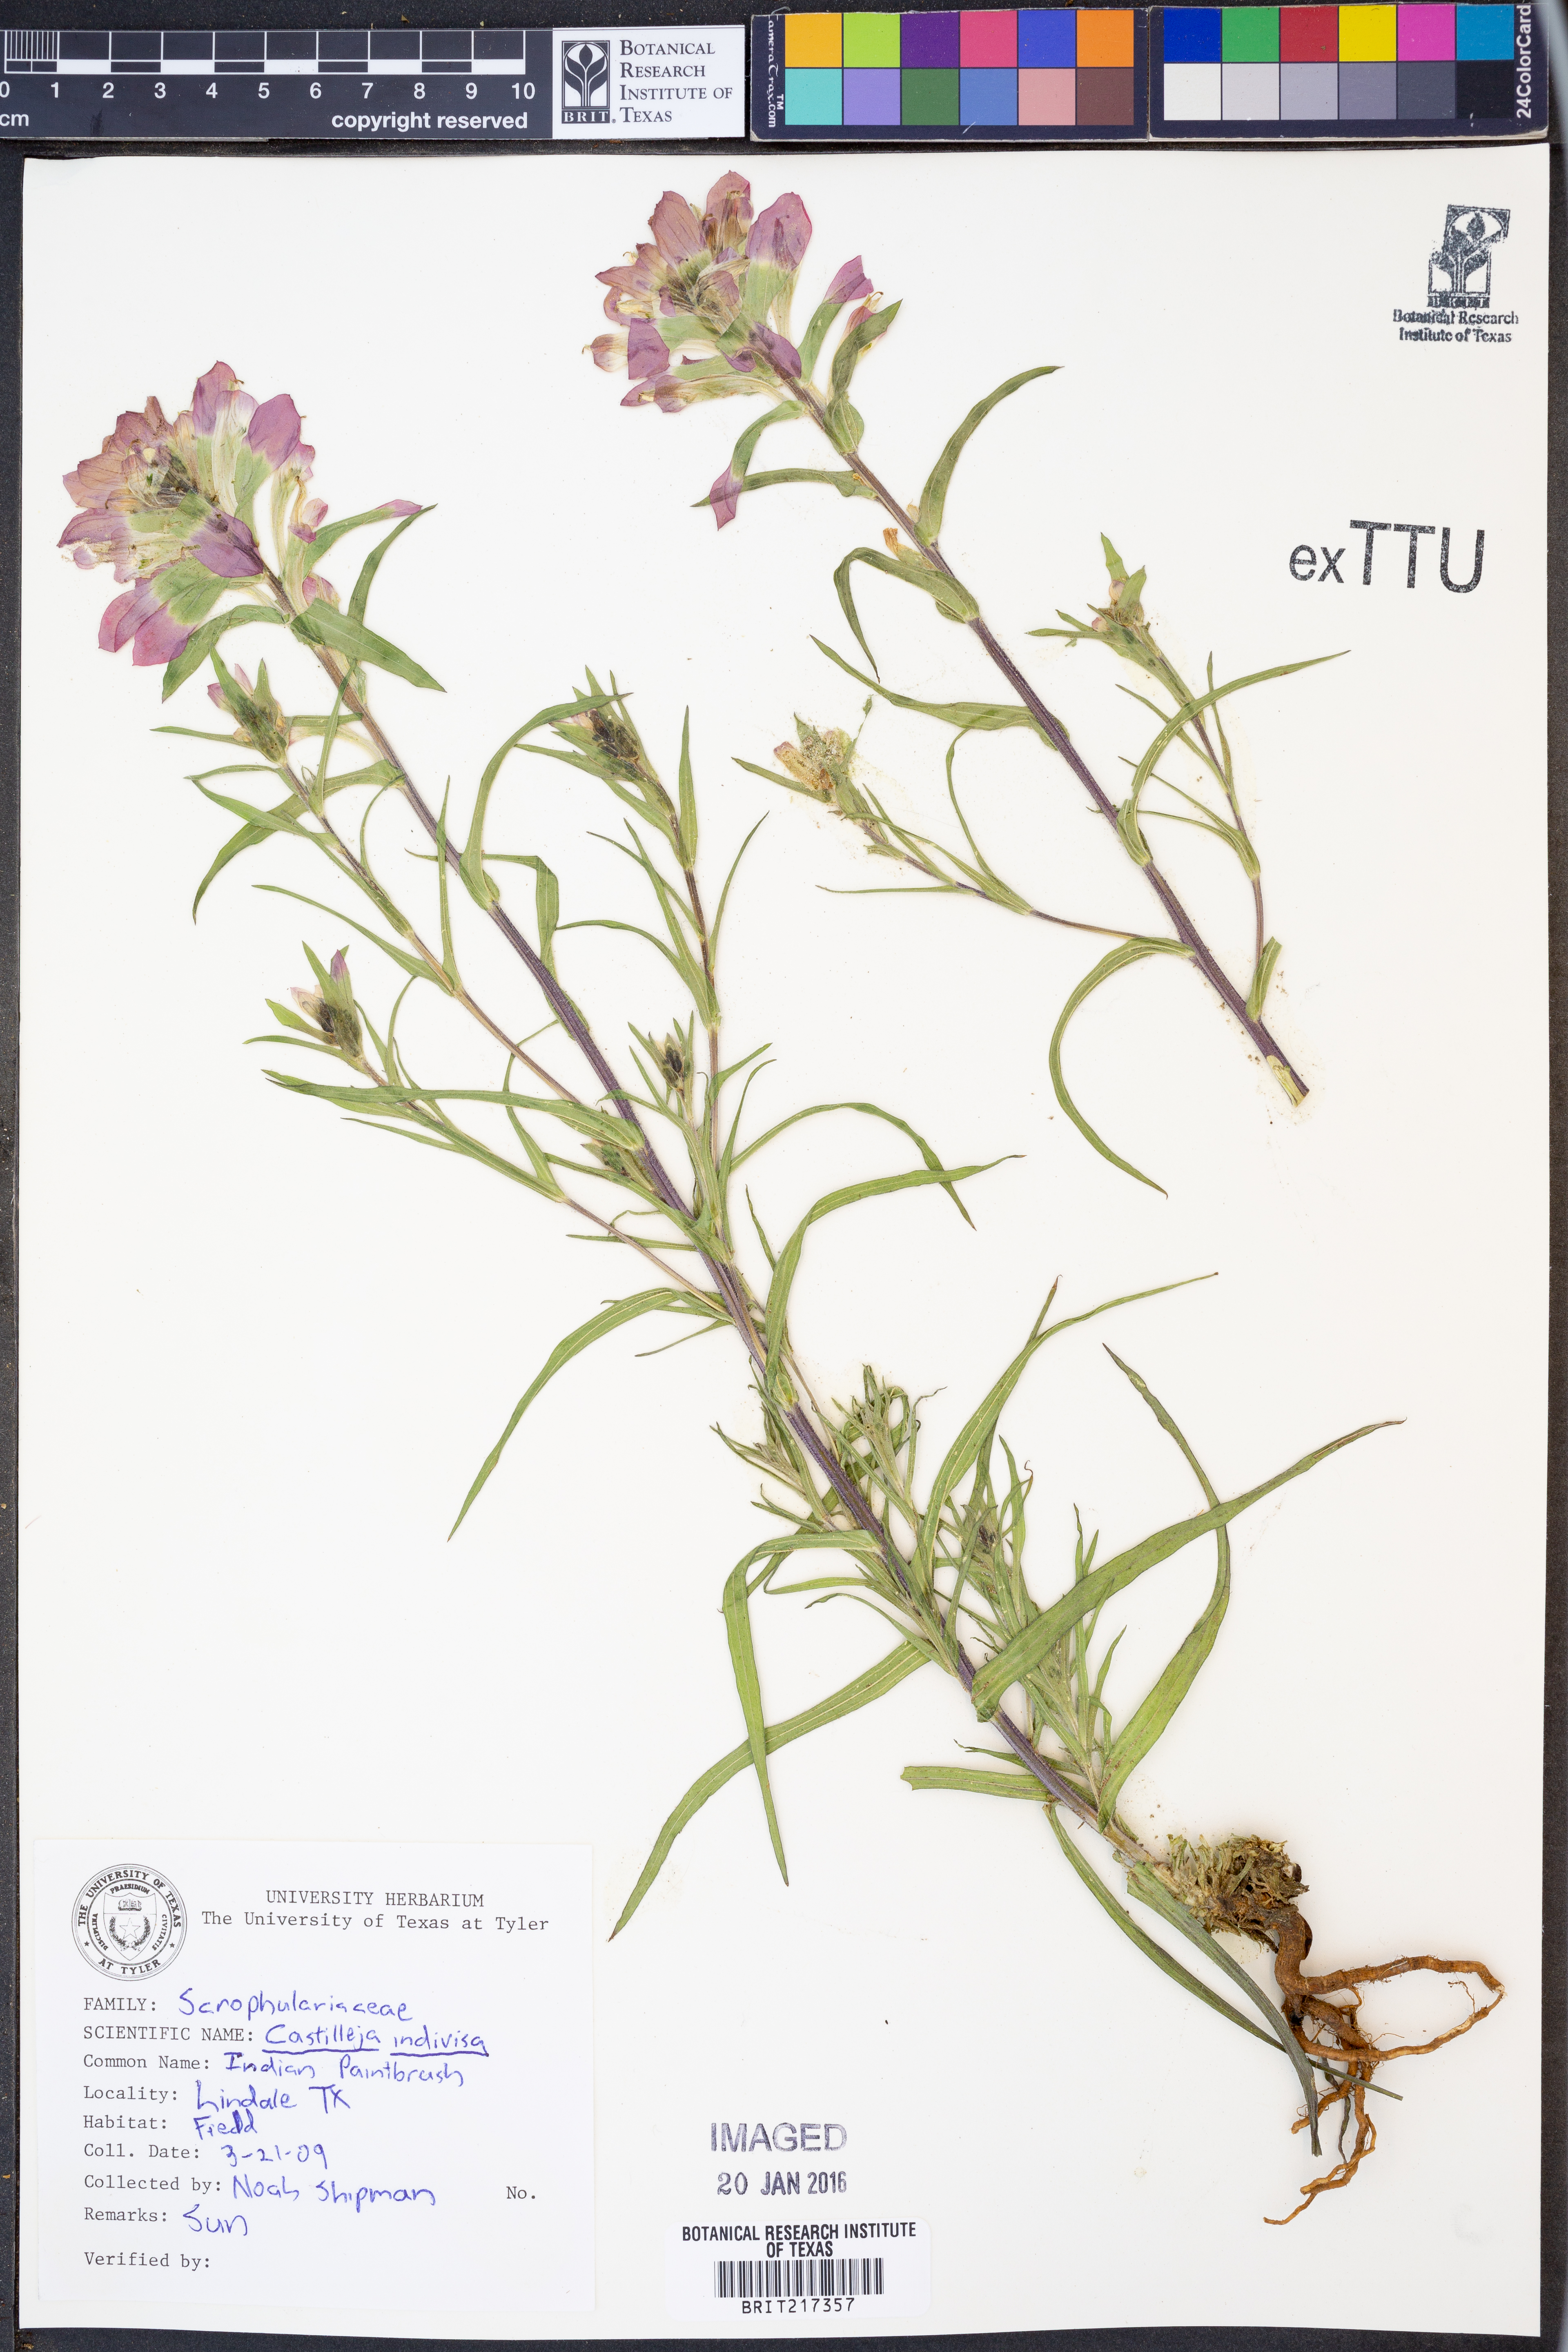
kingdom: Plantae
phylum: Tracheophyta
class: Magnoliopsida
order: Lamiales
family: Orobanchaceae
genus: Castilleja
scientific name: Castilleja indivisa
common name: Texas paintbrush
